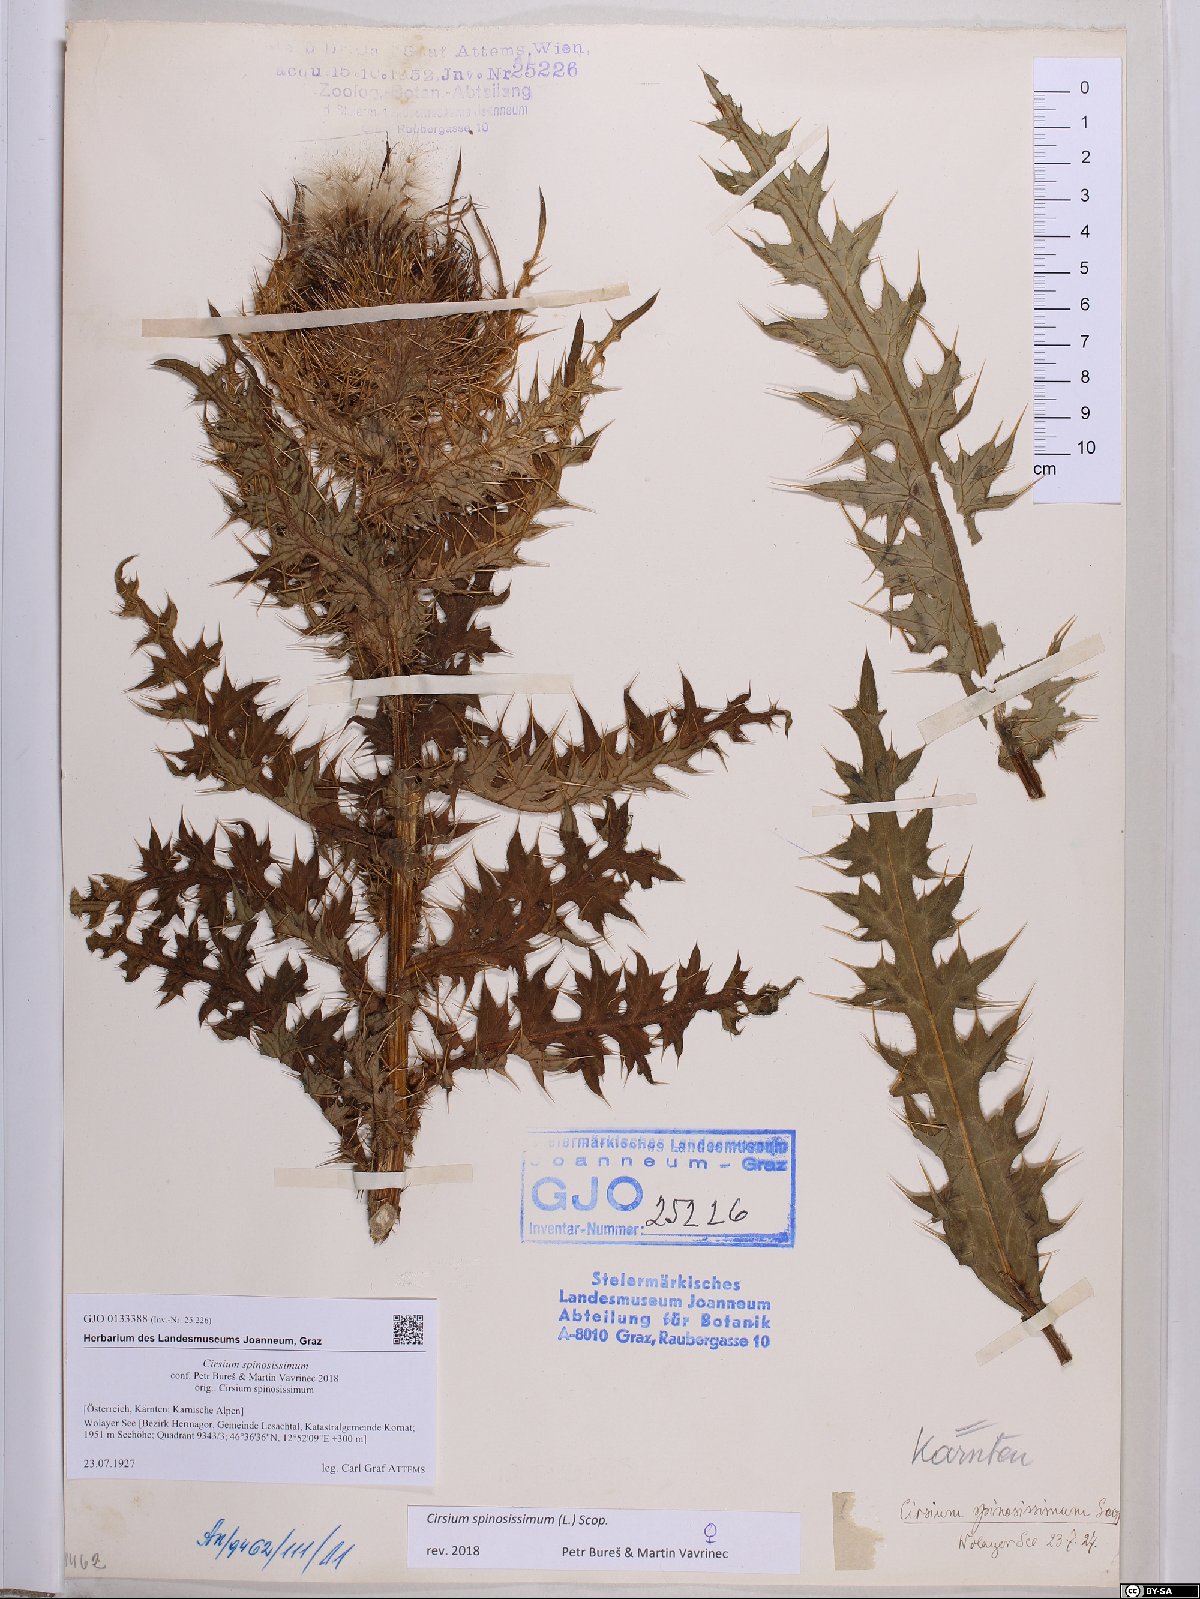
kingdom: Plantae
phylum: Tracheophyta
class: Magnoliopsida
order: Asterales
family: Asteraceae
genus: Cirsium
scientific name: Cirsium spinosissimum
